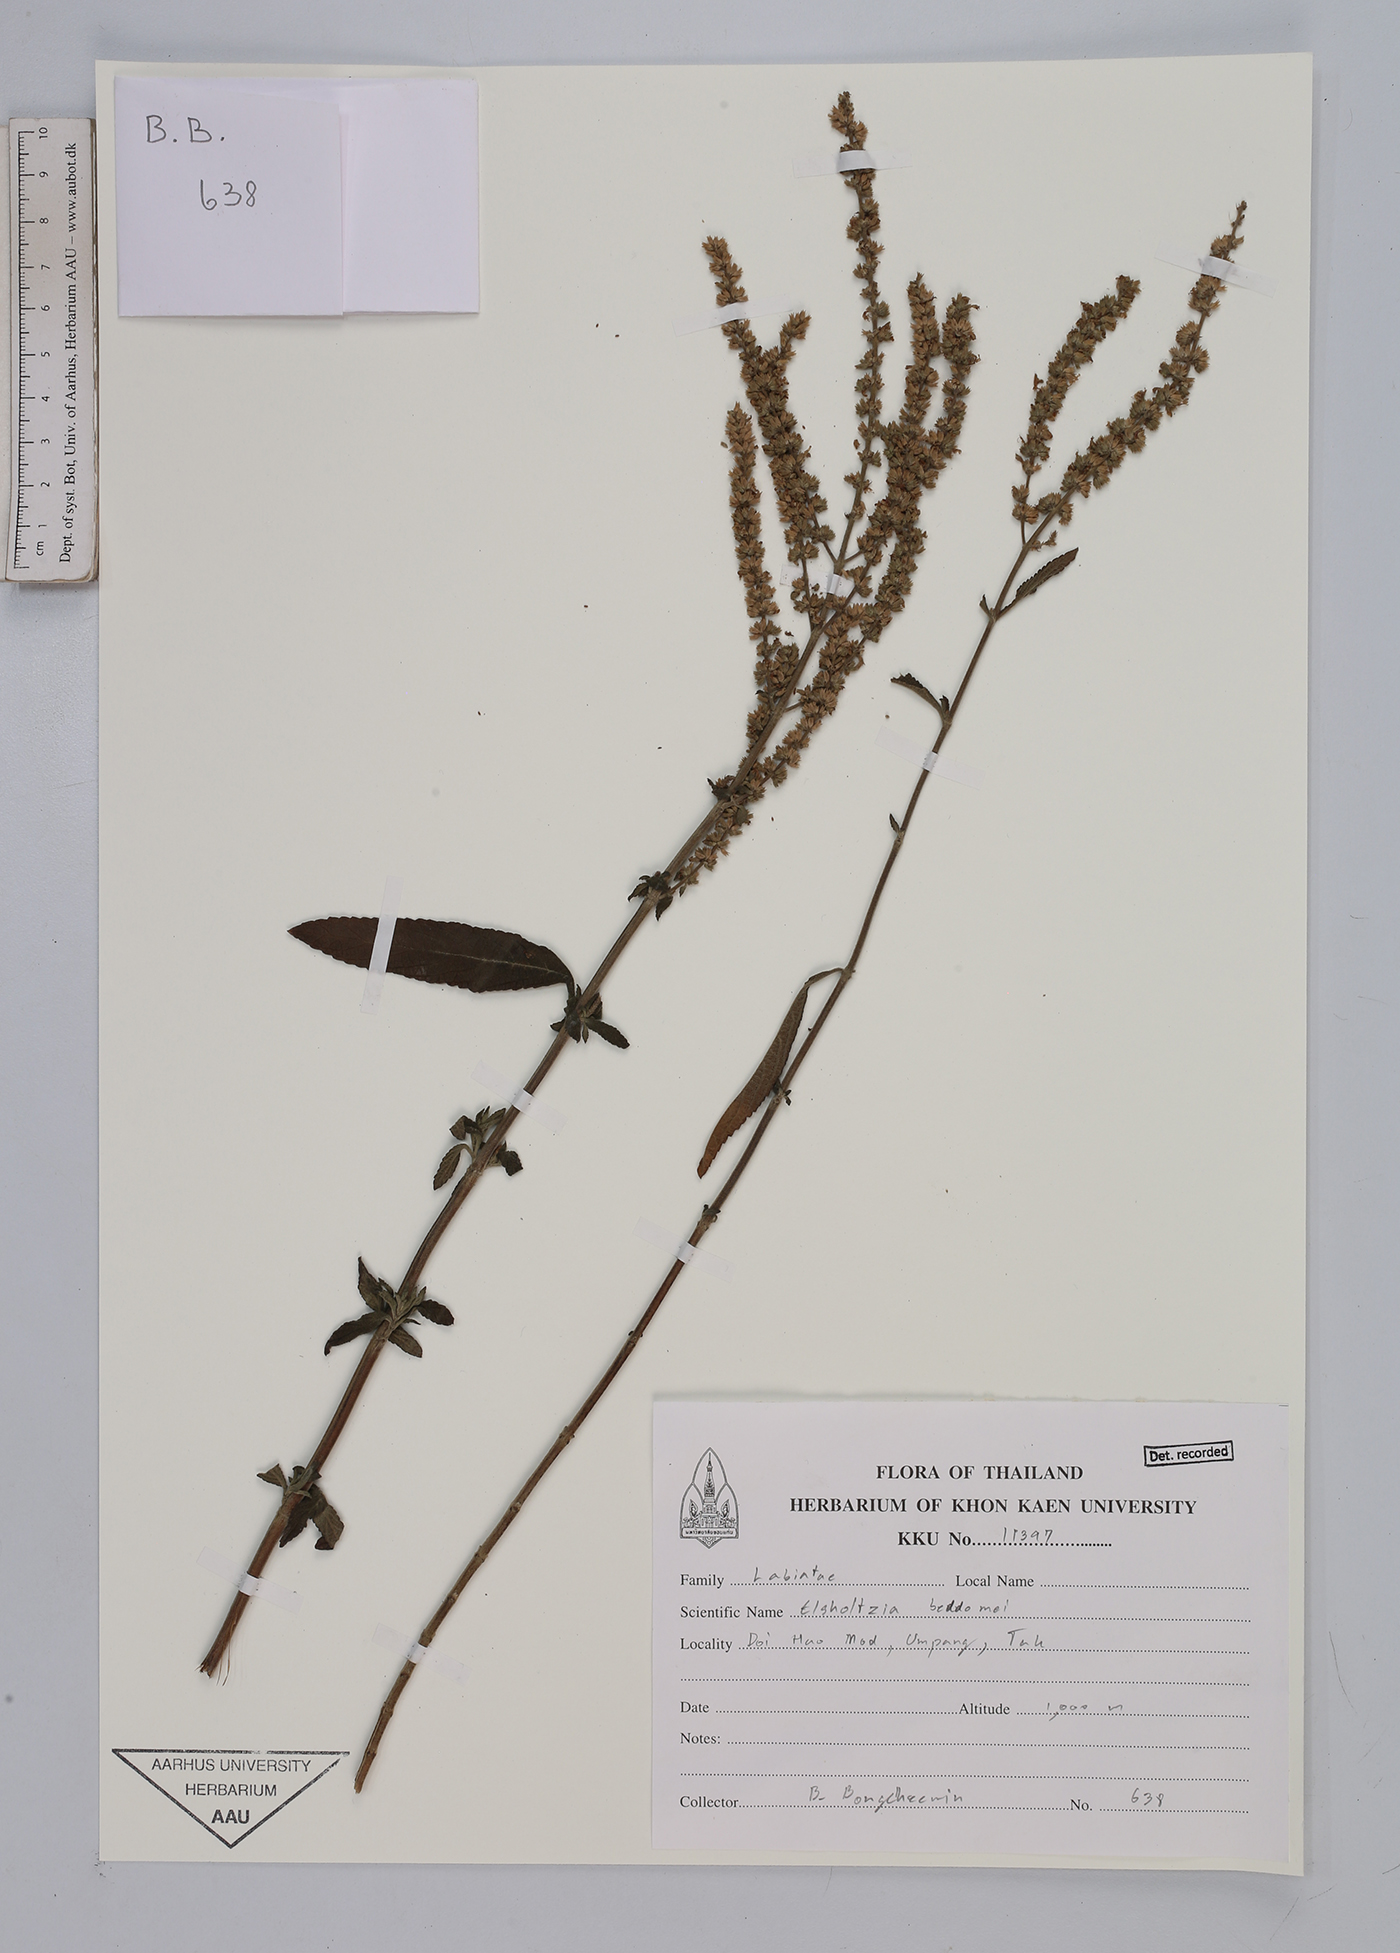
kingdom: Plantae
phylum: Tracheophyta
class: Magnoliopsida
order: Lamiales
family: Lamiaceae
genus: Elsholtzia
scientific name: Elsholtzia beddomei
